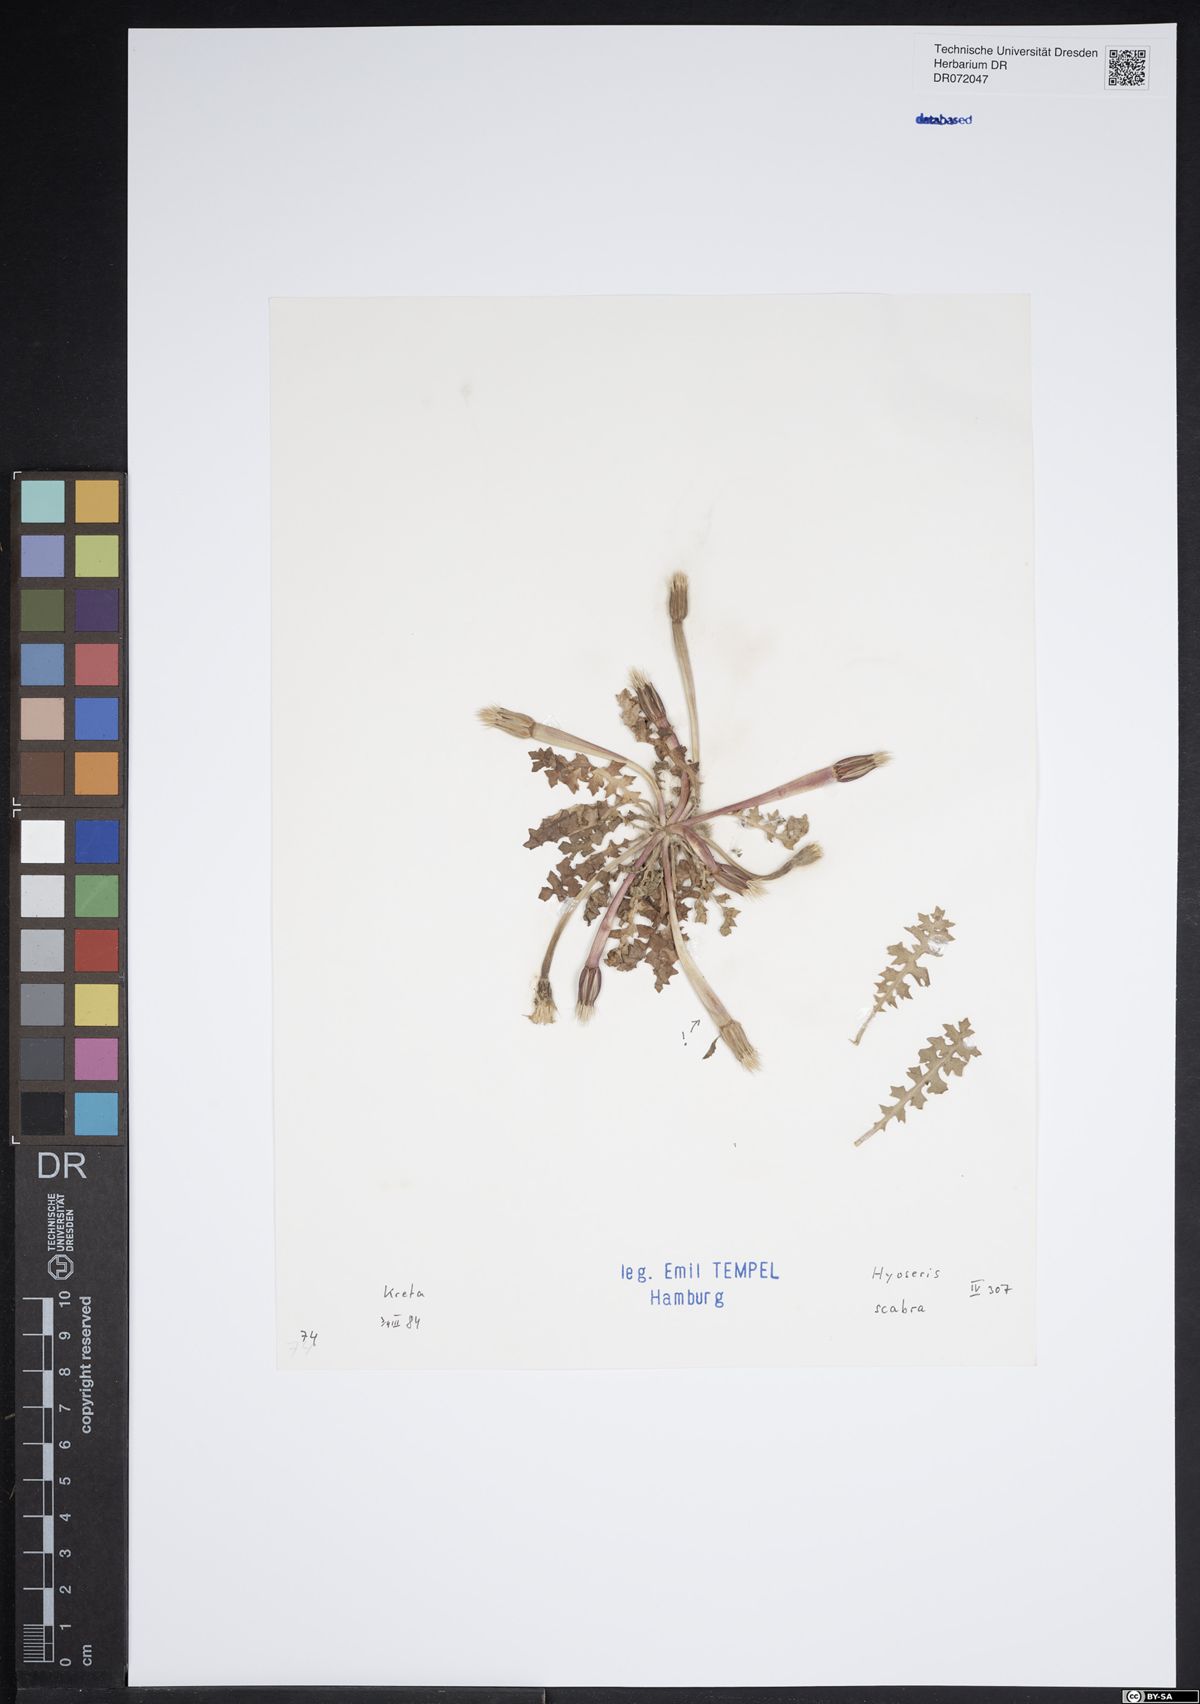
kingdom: Plantae
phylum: Tracheophyta
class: Magnoliopsida
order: Asterales
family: Asteraceae
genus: Hyoseris
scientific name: Hyoseris scabra
